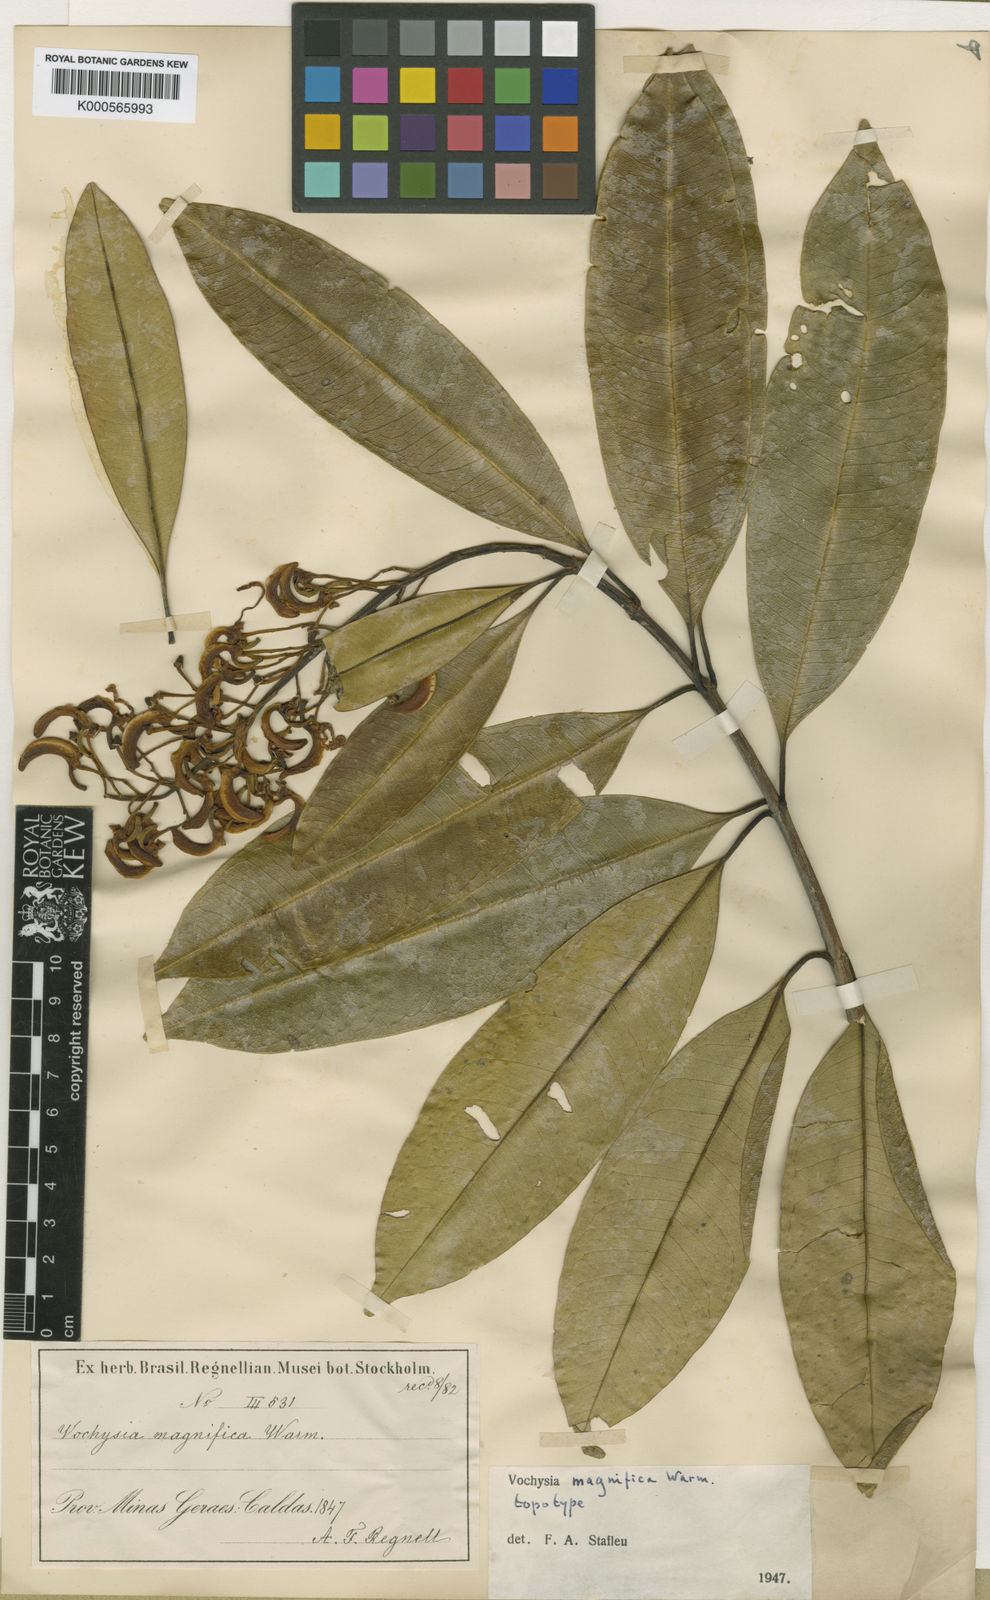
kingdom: Plantae
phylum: Tracheophyta
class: Magnoliopsida
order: Myrtales
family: Vochysiaceae
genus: Vochysia
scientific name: Vochysia magnifica
